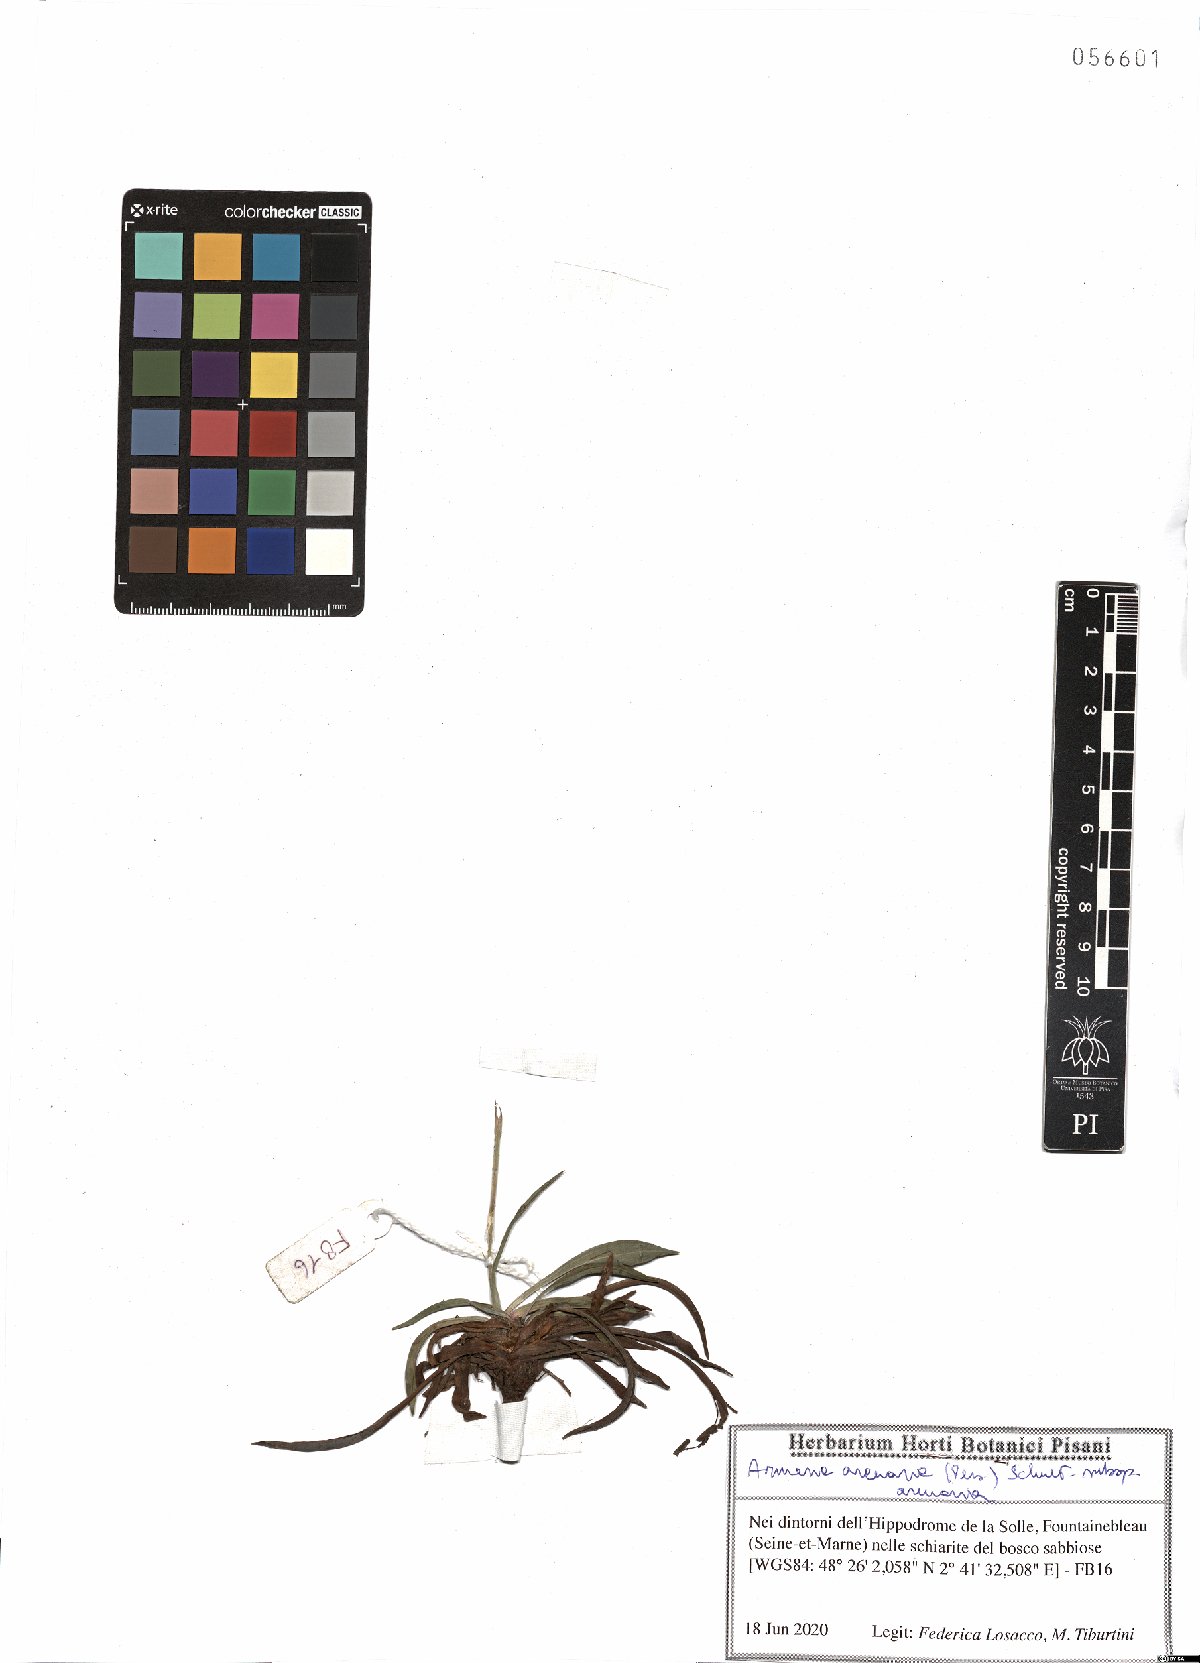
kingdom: Plantae
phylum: Tracheophyta
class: Magnoliopsida
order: Caryophyllales
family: Plumbaginaceae
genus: Armeria
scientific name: Armeria arenaria
